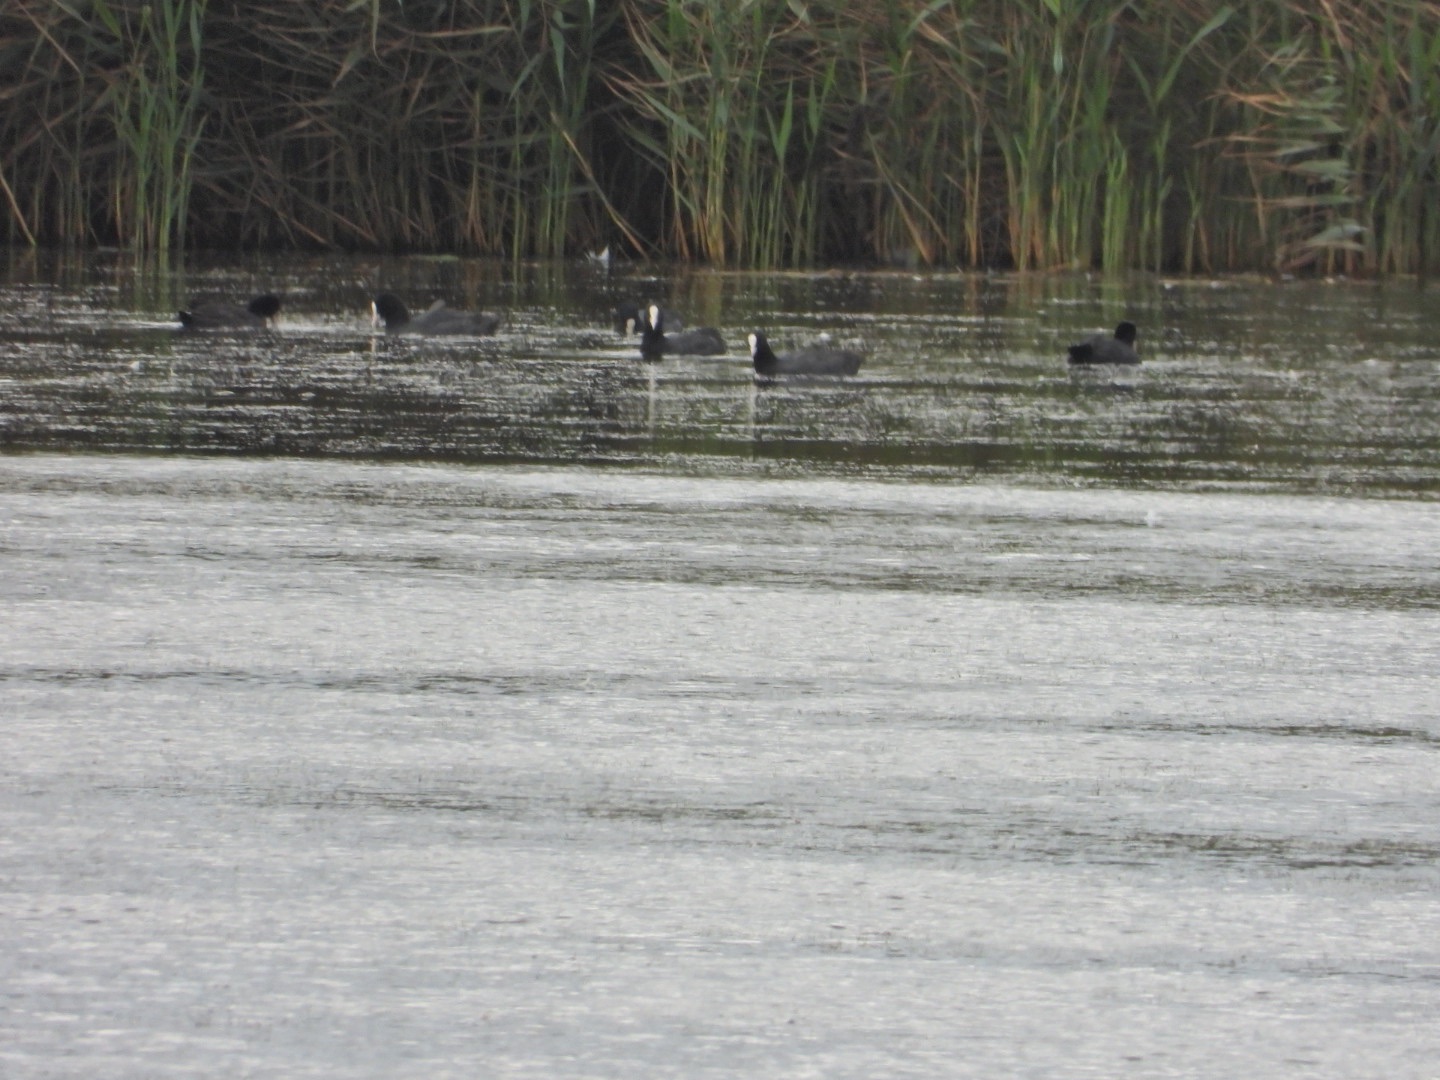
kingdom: Animalia
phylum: Chordata
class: Aves
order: Gruiformes
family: Rallidae
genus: Fulica
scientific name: Fulica atra
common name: Blishøne
